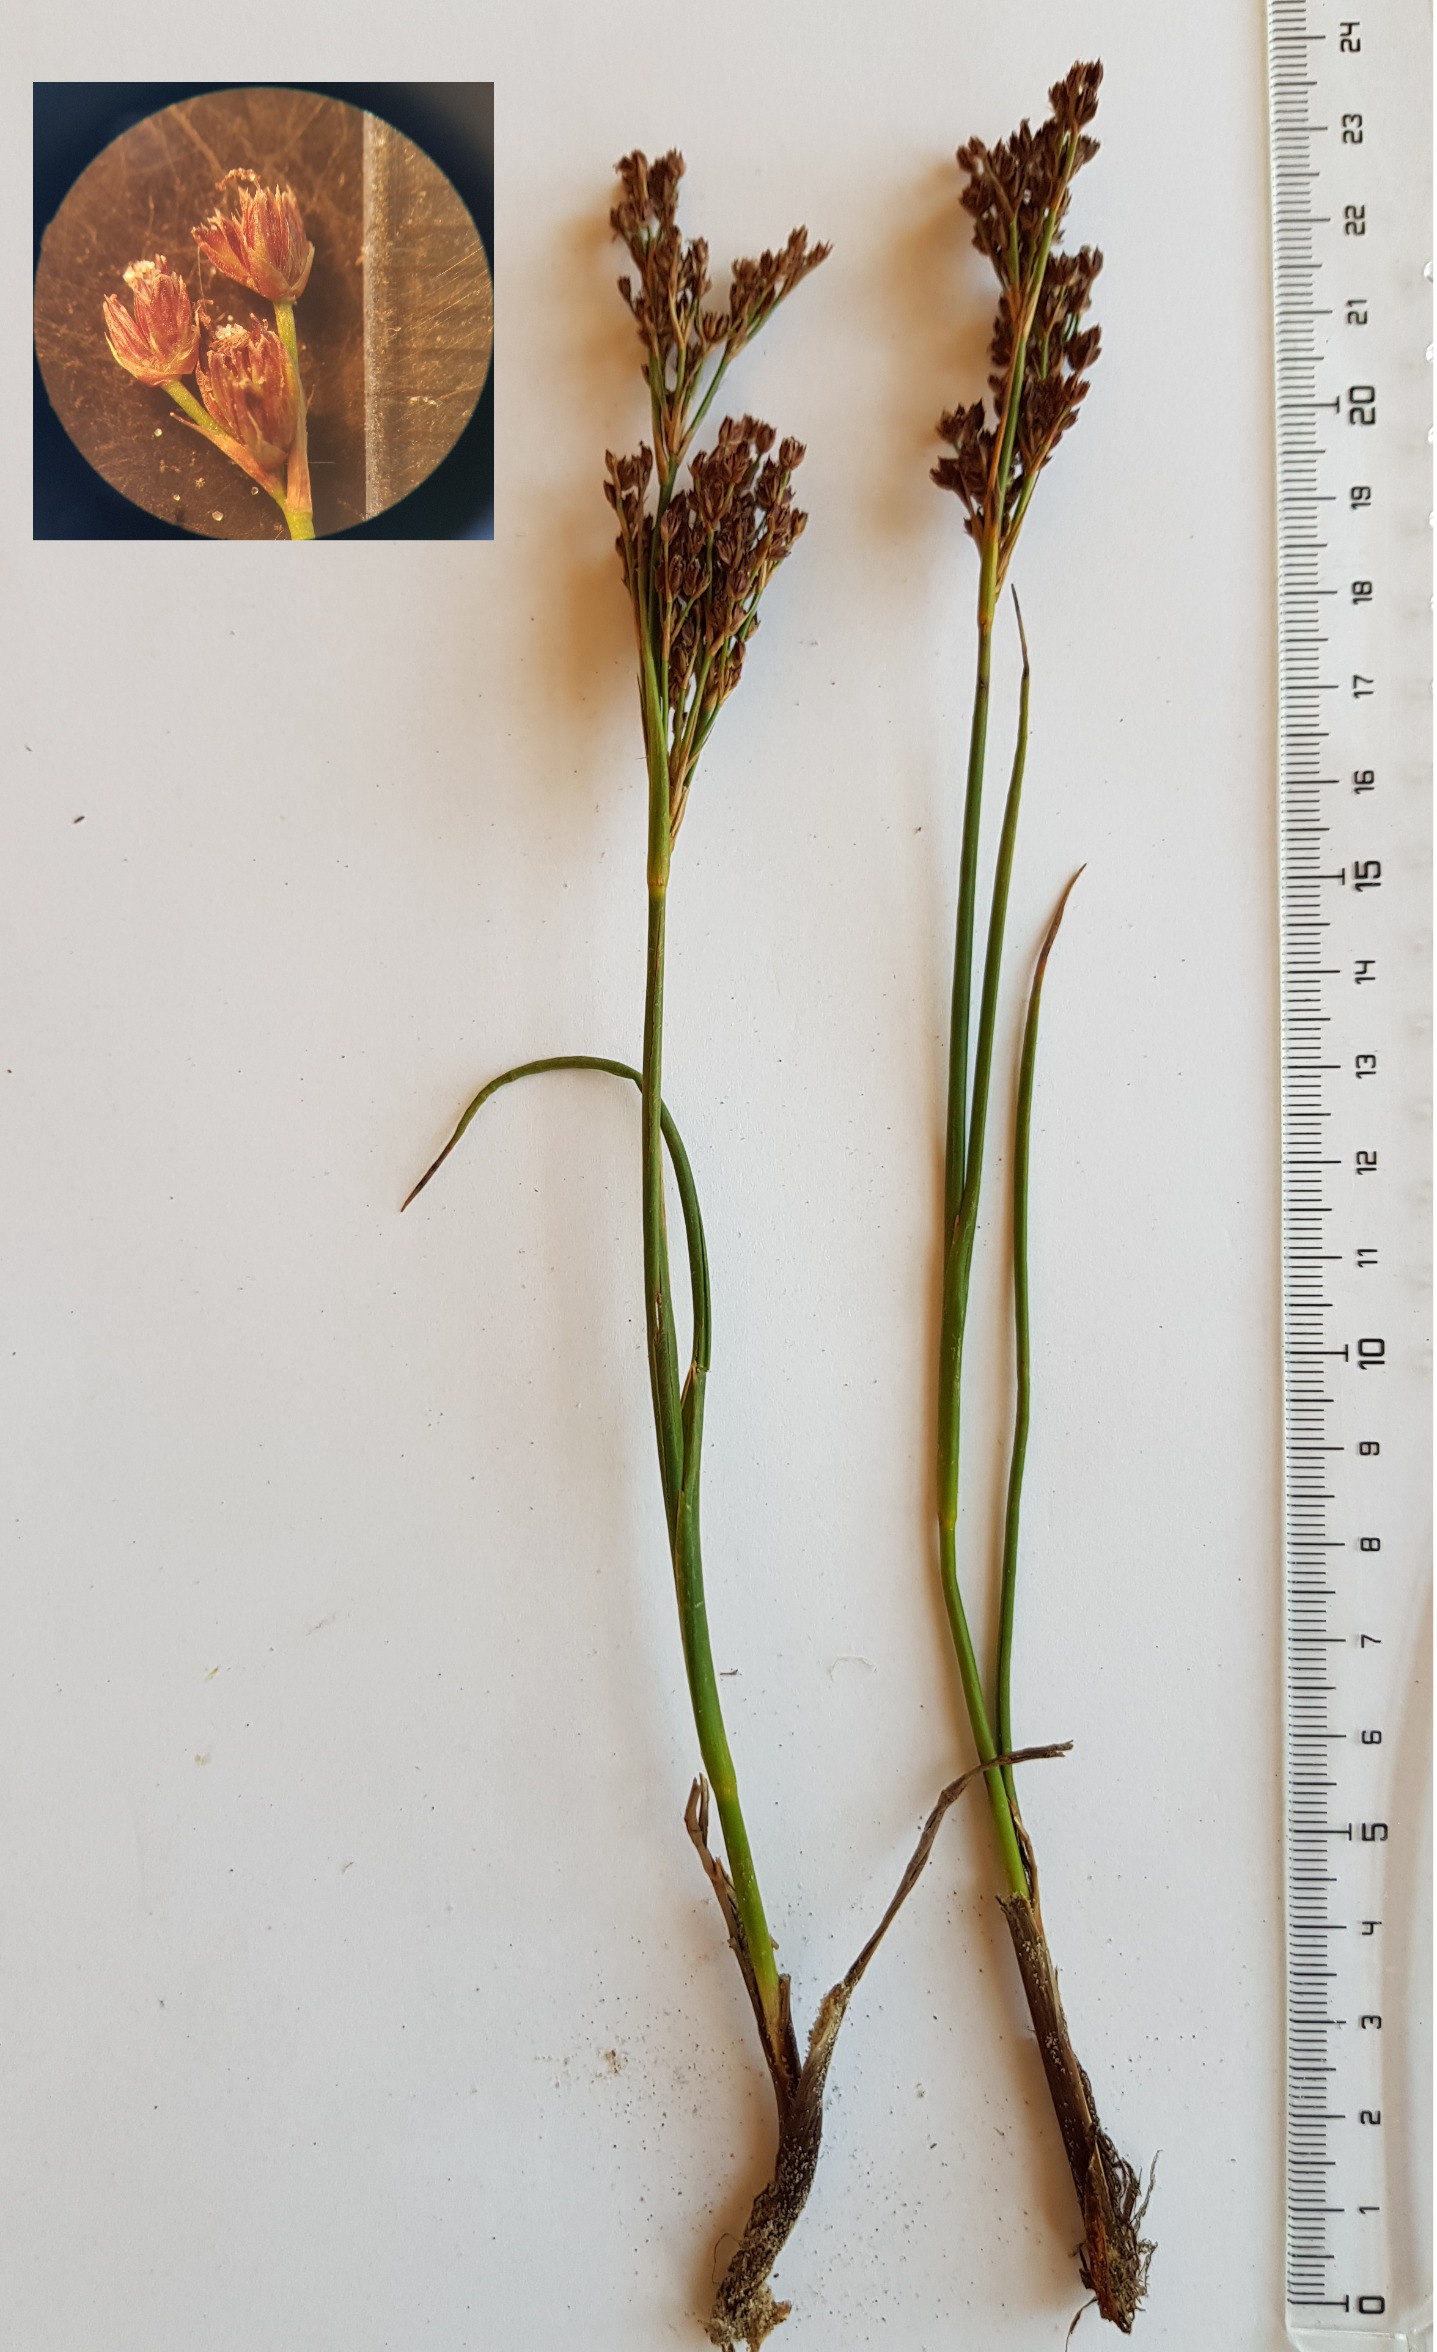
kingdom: Plantae
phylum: Tracheophyta
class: Liliopsida
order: Poales
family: Juncaceae
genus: Juncus
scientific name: Juncus anceps
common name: Sand-siv
